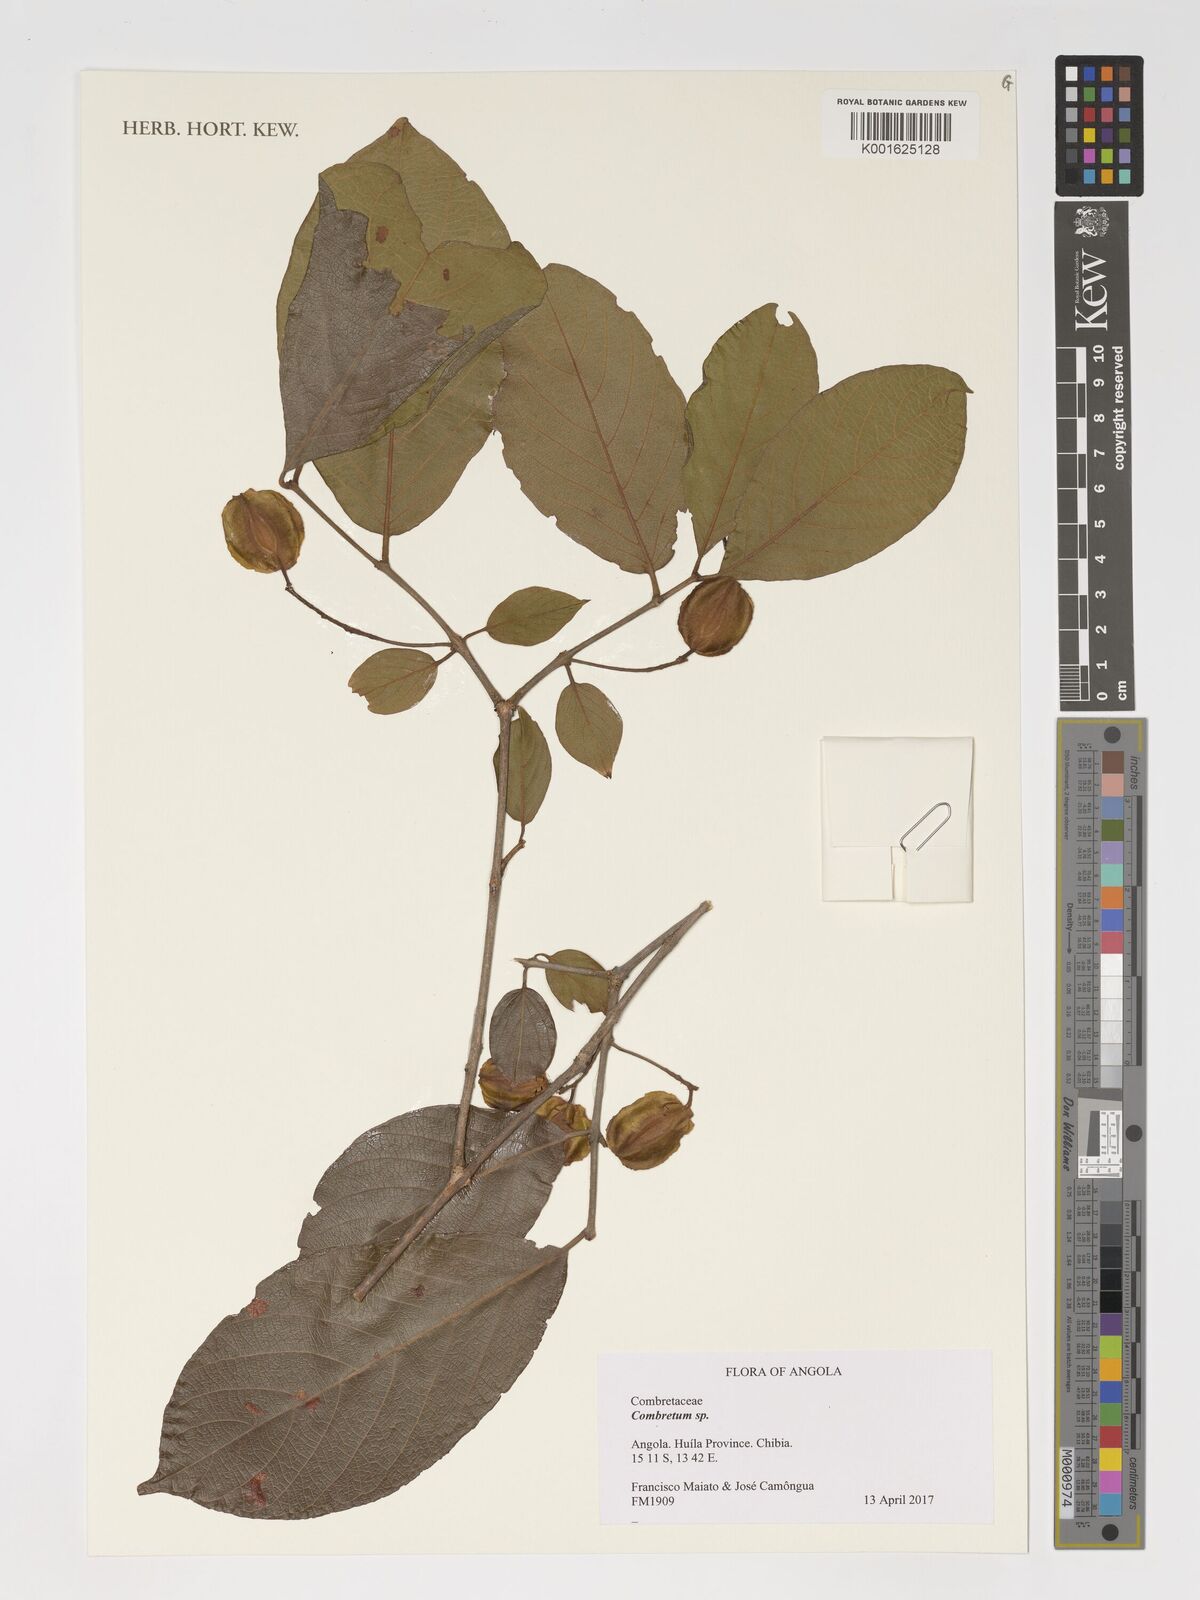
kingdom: Plantae
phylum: Tracheophyta
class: Magnoliopsida
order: Myrtales
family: Combretaceae
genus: Combretum
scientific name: Combretum
